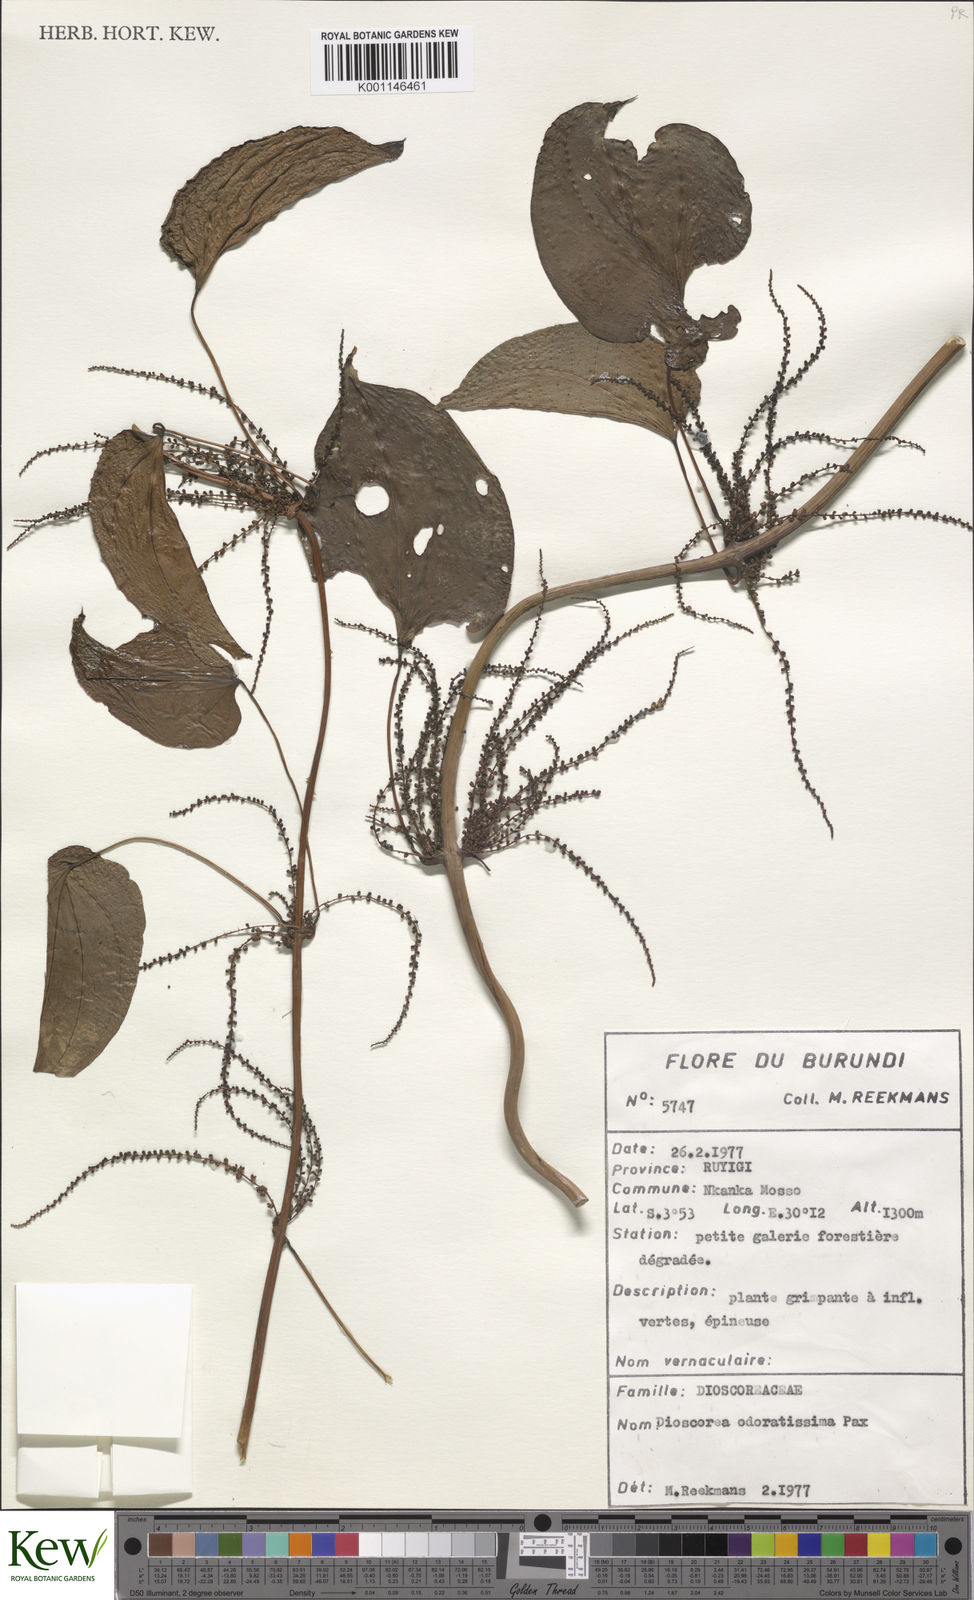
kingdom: Plantae
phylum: Tracheophyta
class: Liliopsida
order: Dioscoreales
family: Dioscoreaceae
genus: Dioscorea
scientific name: Dioscorea praehensilis
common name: Bush yam
